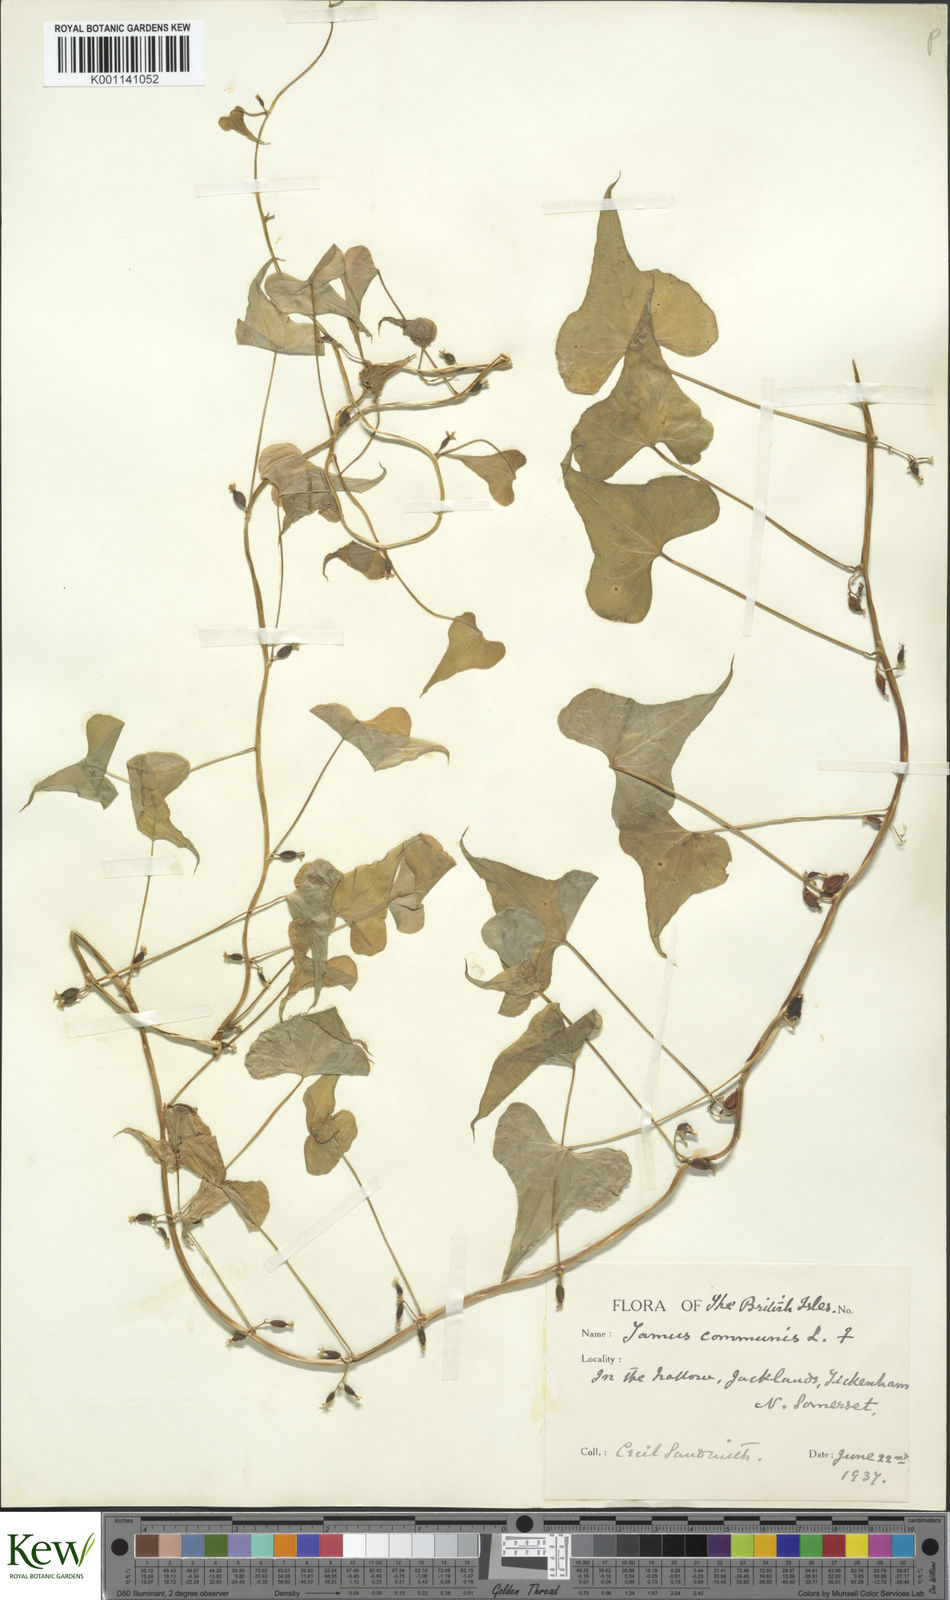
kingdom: Plantae
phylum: Tracheophyta
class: Liliopsida
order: Dioscoreales
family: Dioscoreaceae
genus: Dioscorea
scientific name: Dioscorea communis
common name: Black-bindweed
